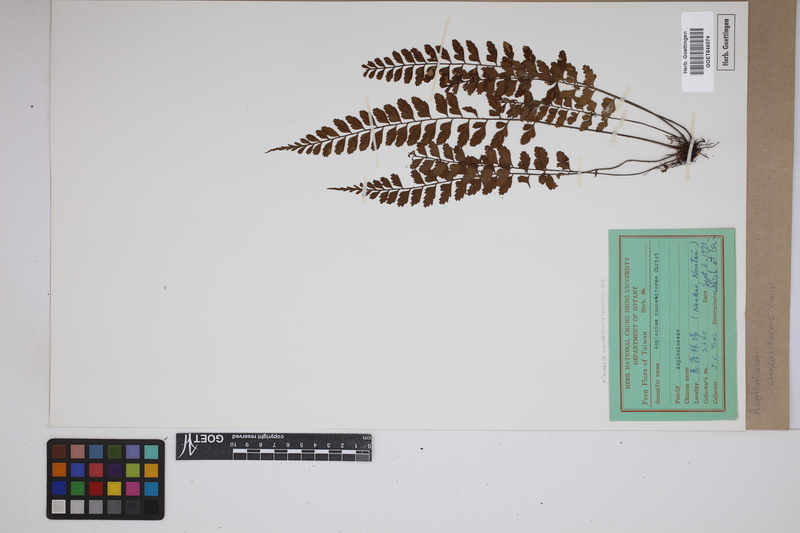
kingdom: Plantae
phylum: Tracheophyta
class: Polypodiopsida
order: Polypodiales
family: Aspleniaceae
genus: Asplenium
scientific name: Asplenium cuneatiforme
